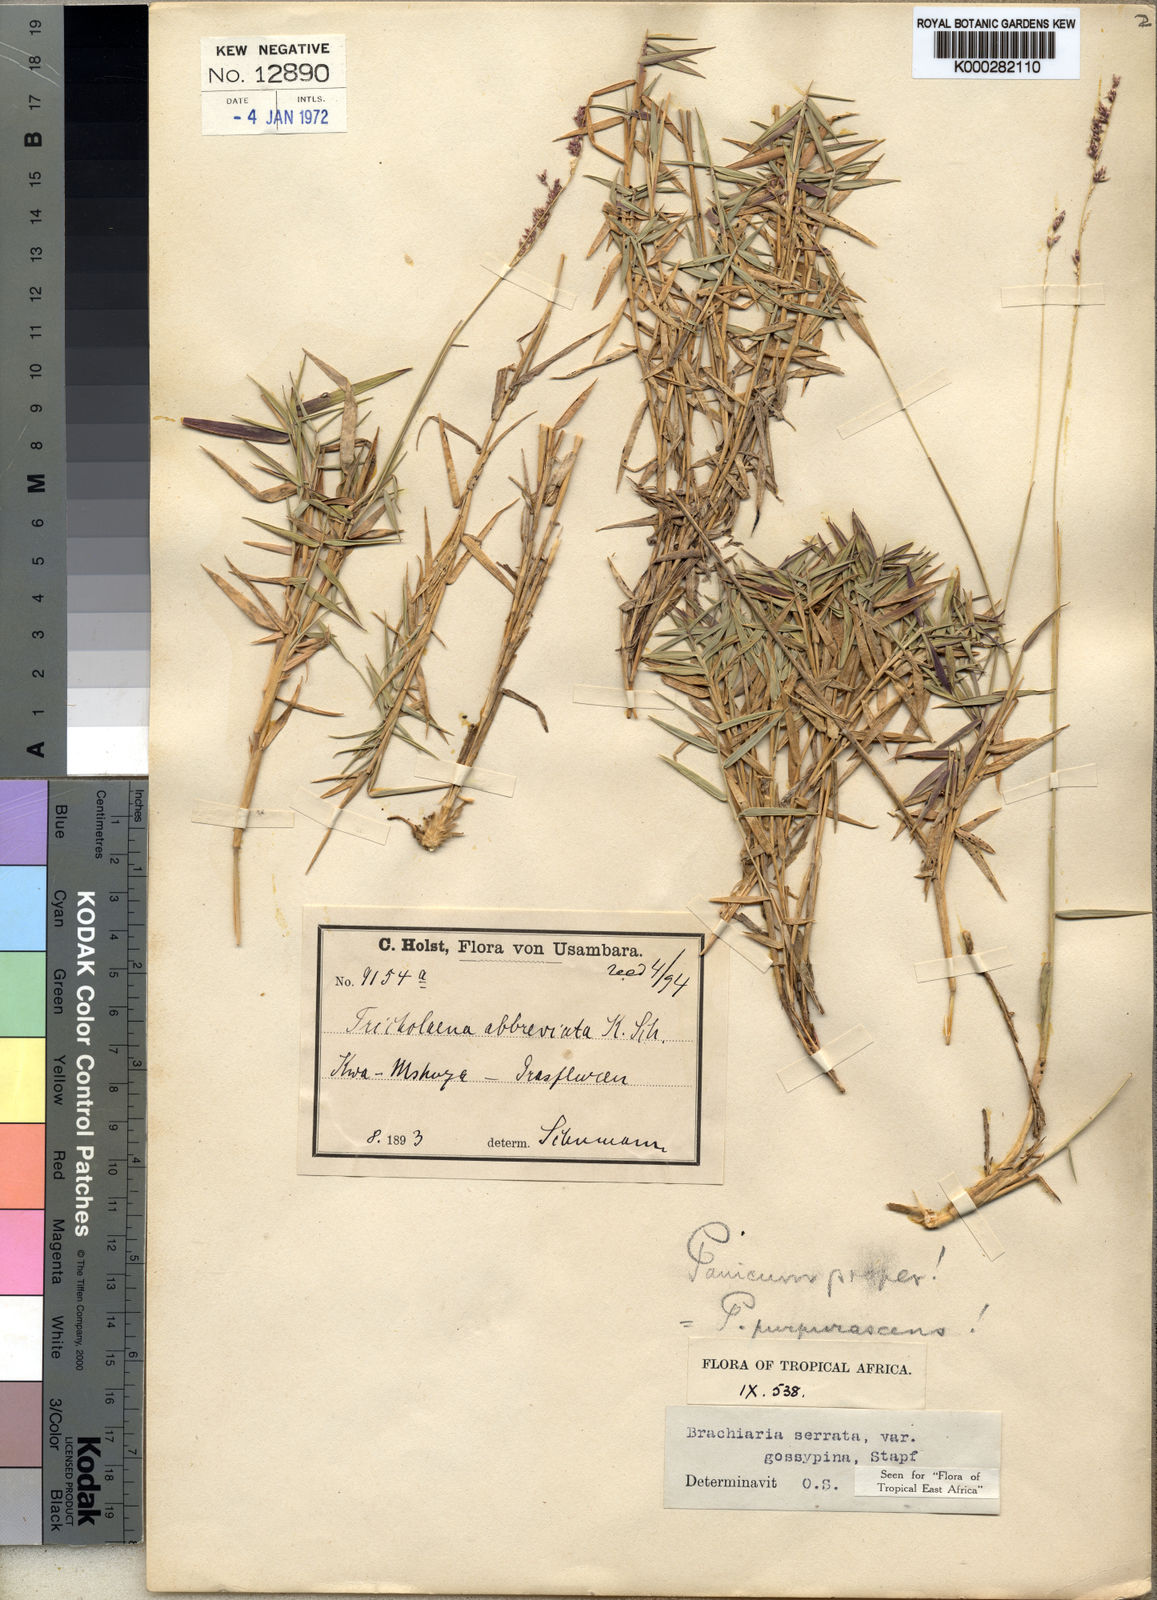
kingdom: Plantae
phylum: Tracheophyta
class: Liliopsida
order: Poales
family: Poaceae
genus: Urochloa
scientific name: Urochloa serrata
